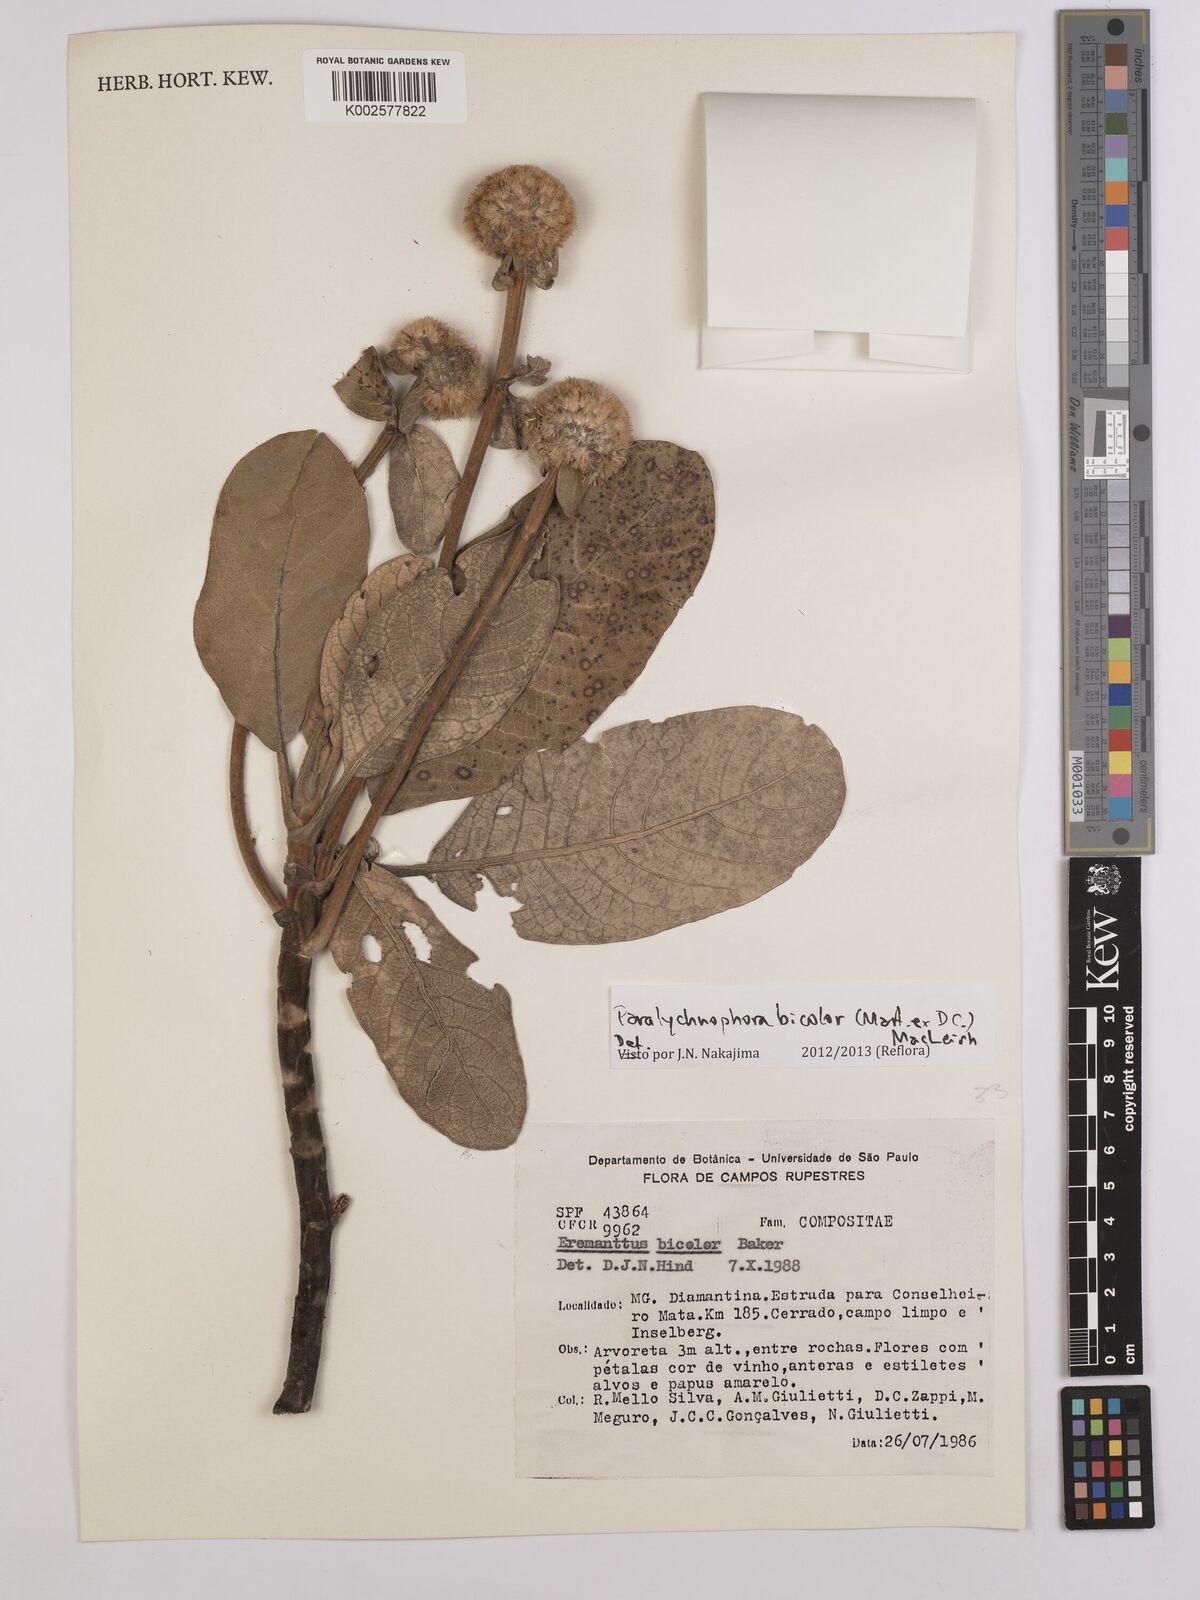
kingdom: Plantae
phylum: Tracheophyta
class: Magnoliopsida
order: Asterales
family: Asteraceae
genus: Paralychnophora
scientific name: Paralychnophora bicolor
